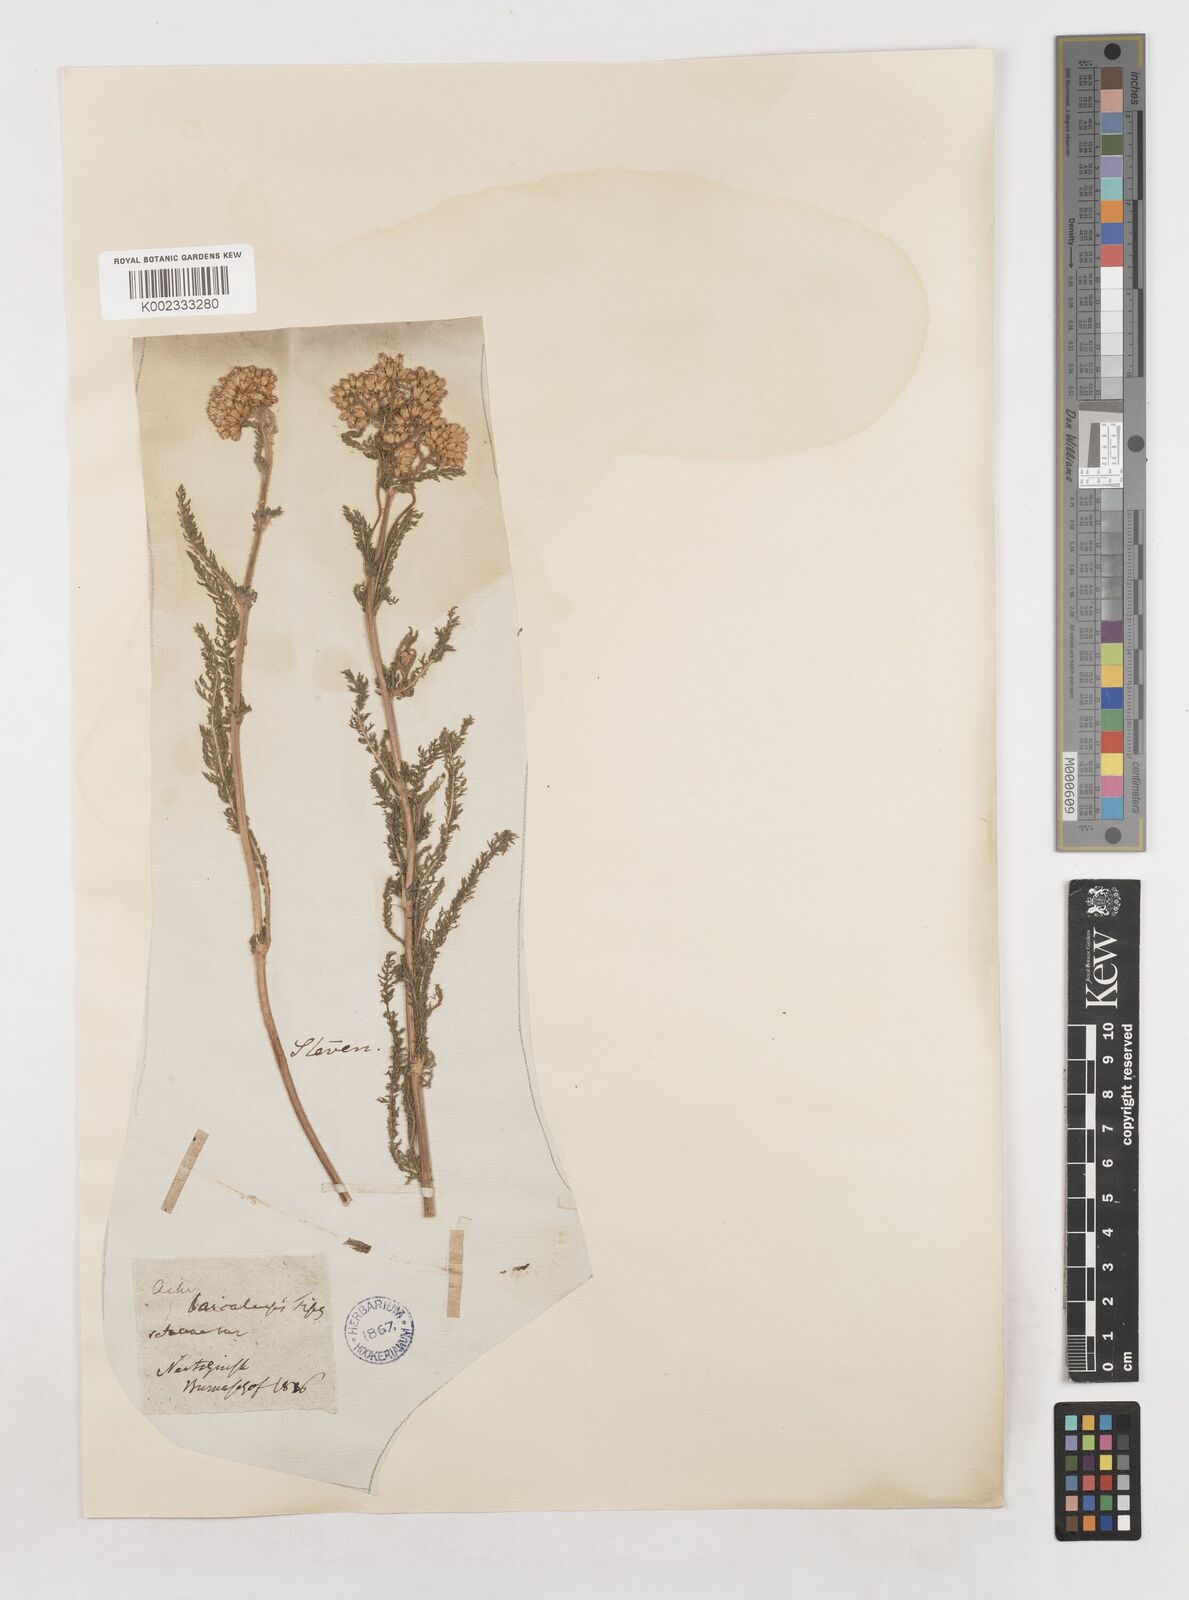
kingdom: Plantae
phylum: Tracheophyta
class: Magnoliopsida
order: Asterales
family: Asteraceae
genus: Achillea
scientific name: Achillea setacea
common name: Bristly yarrow
